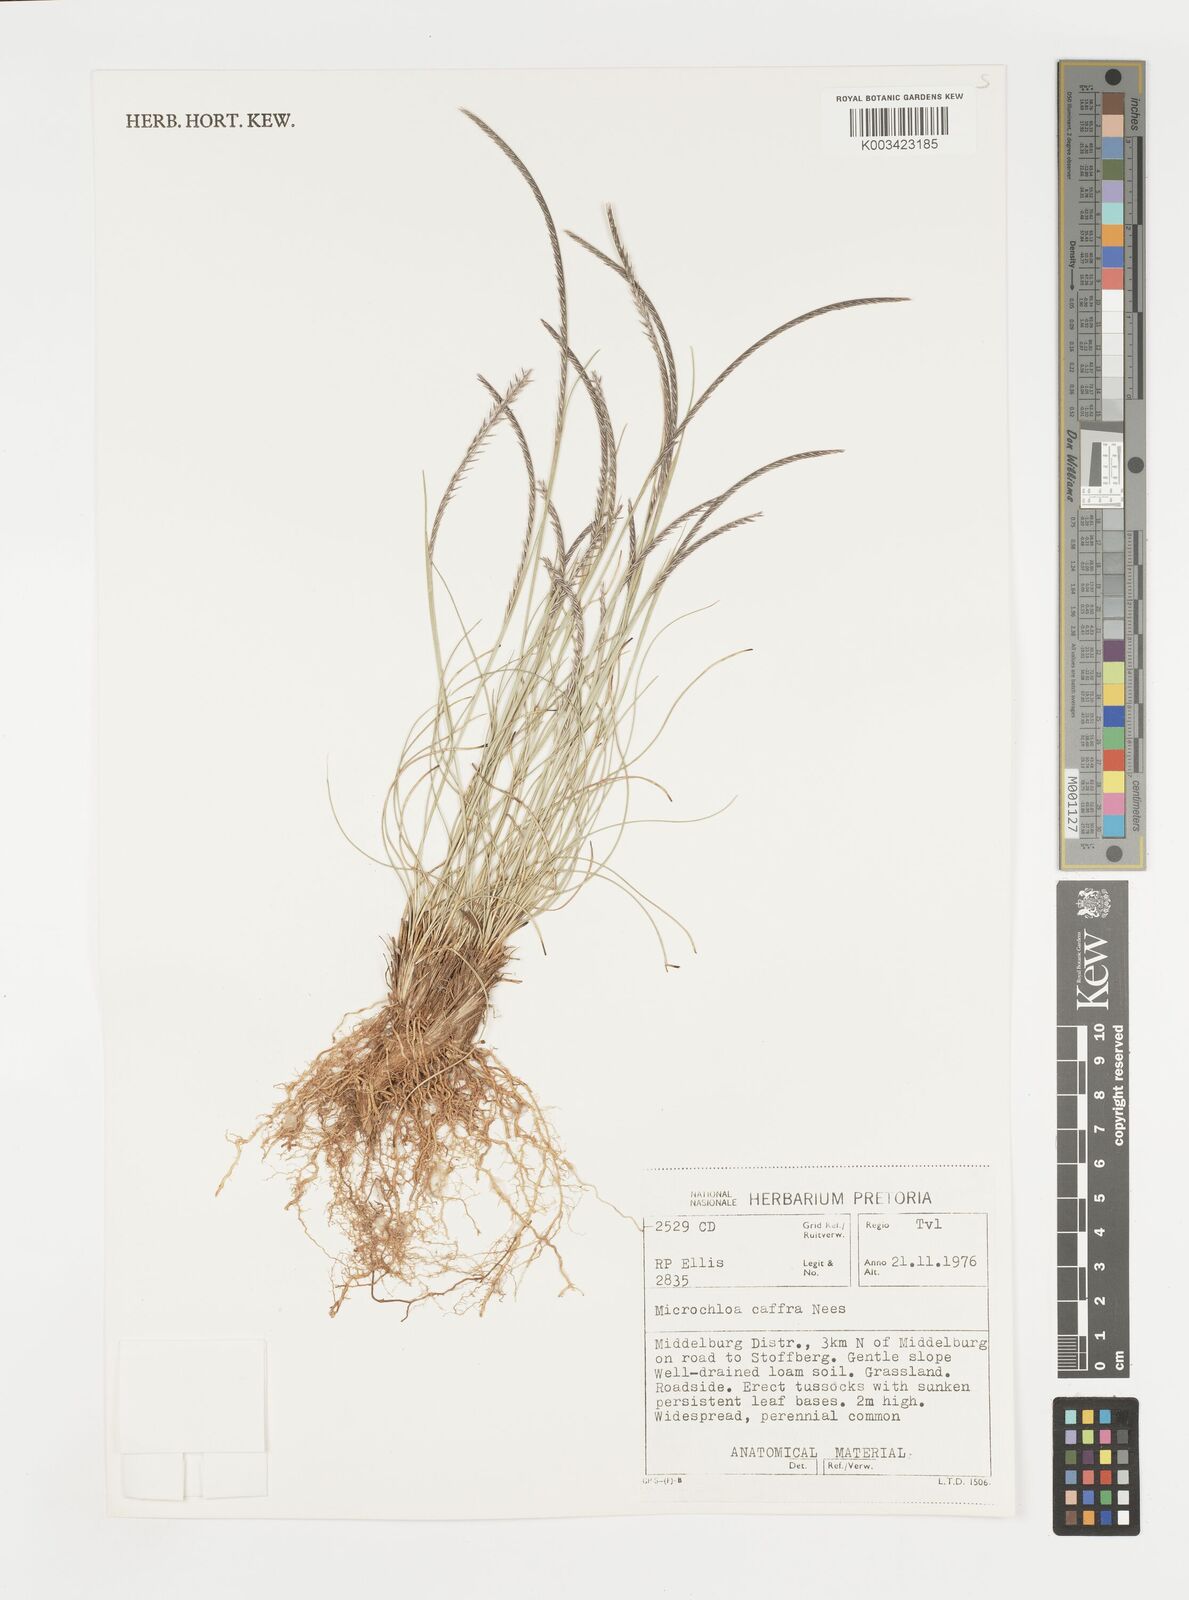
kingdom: Plantae
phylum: Tracheophyta
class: Liliopsida
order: Poales
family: Poaceae
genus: Microchloa
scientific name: Microchloa caffra
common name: Pincushion grass
